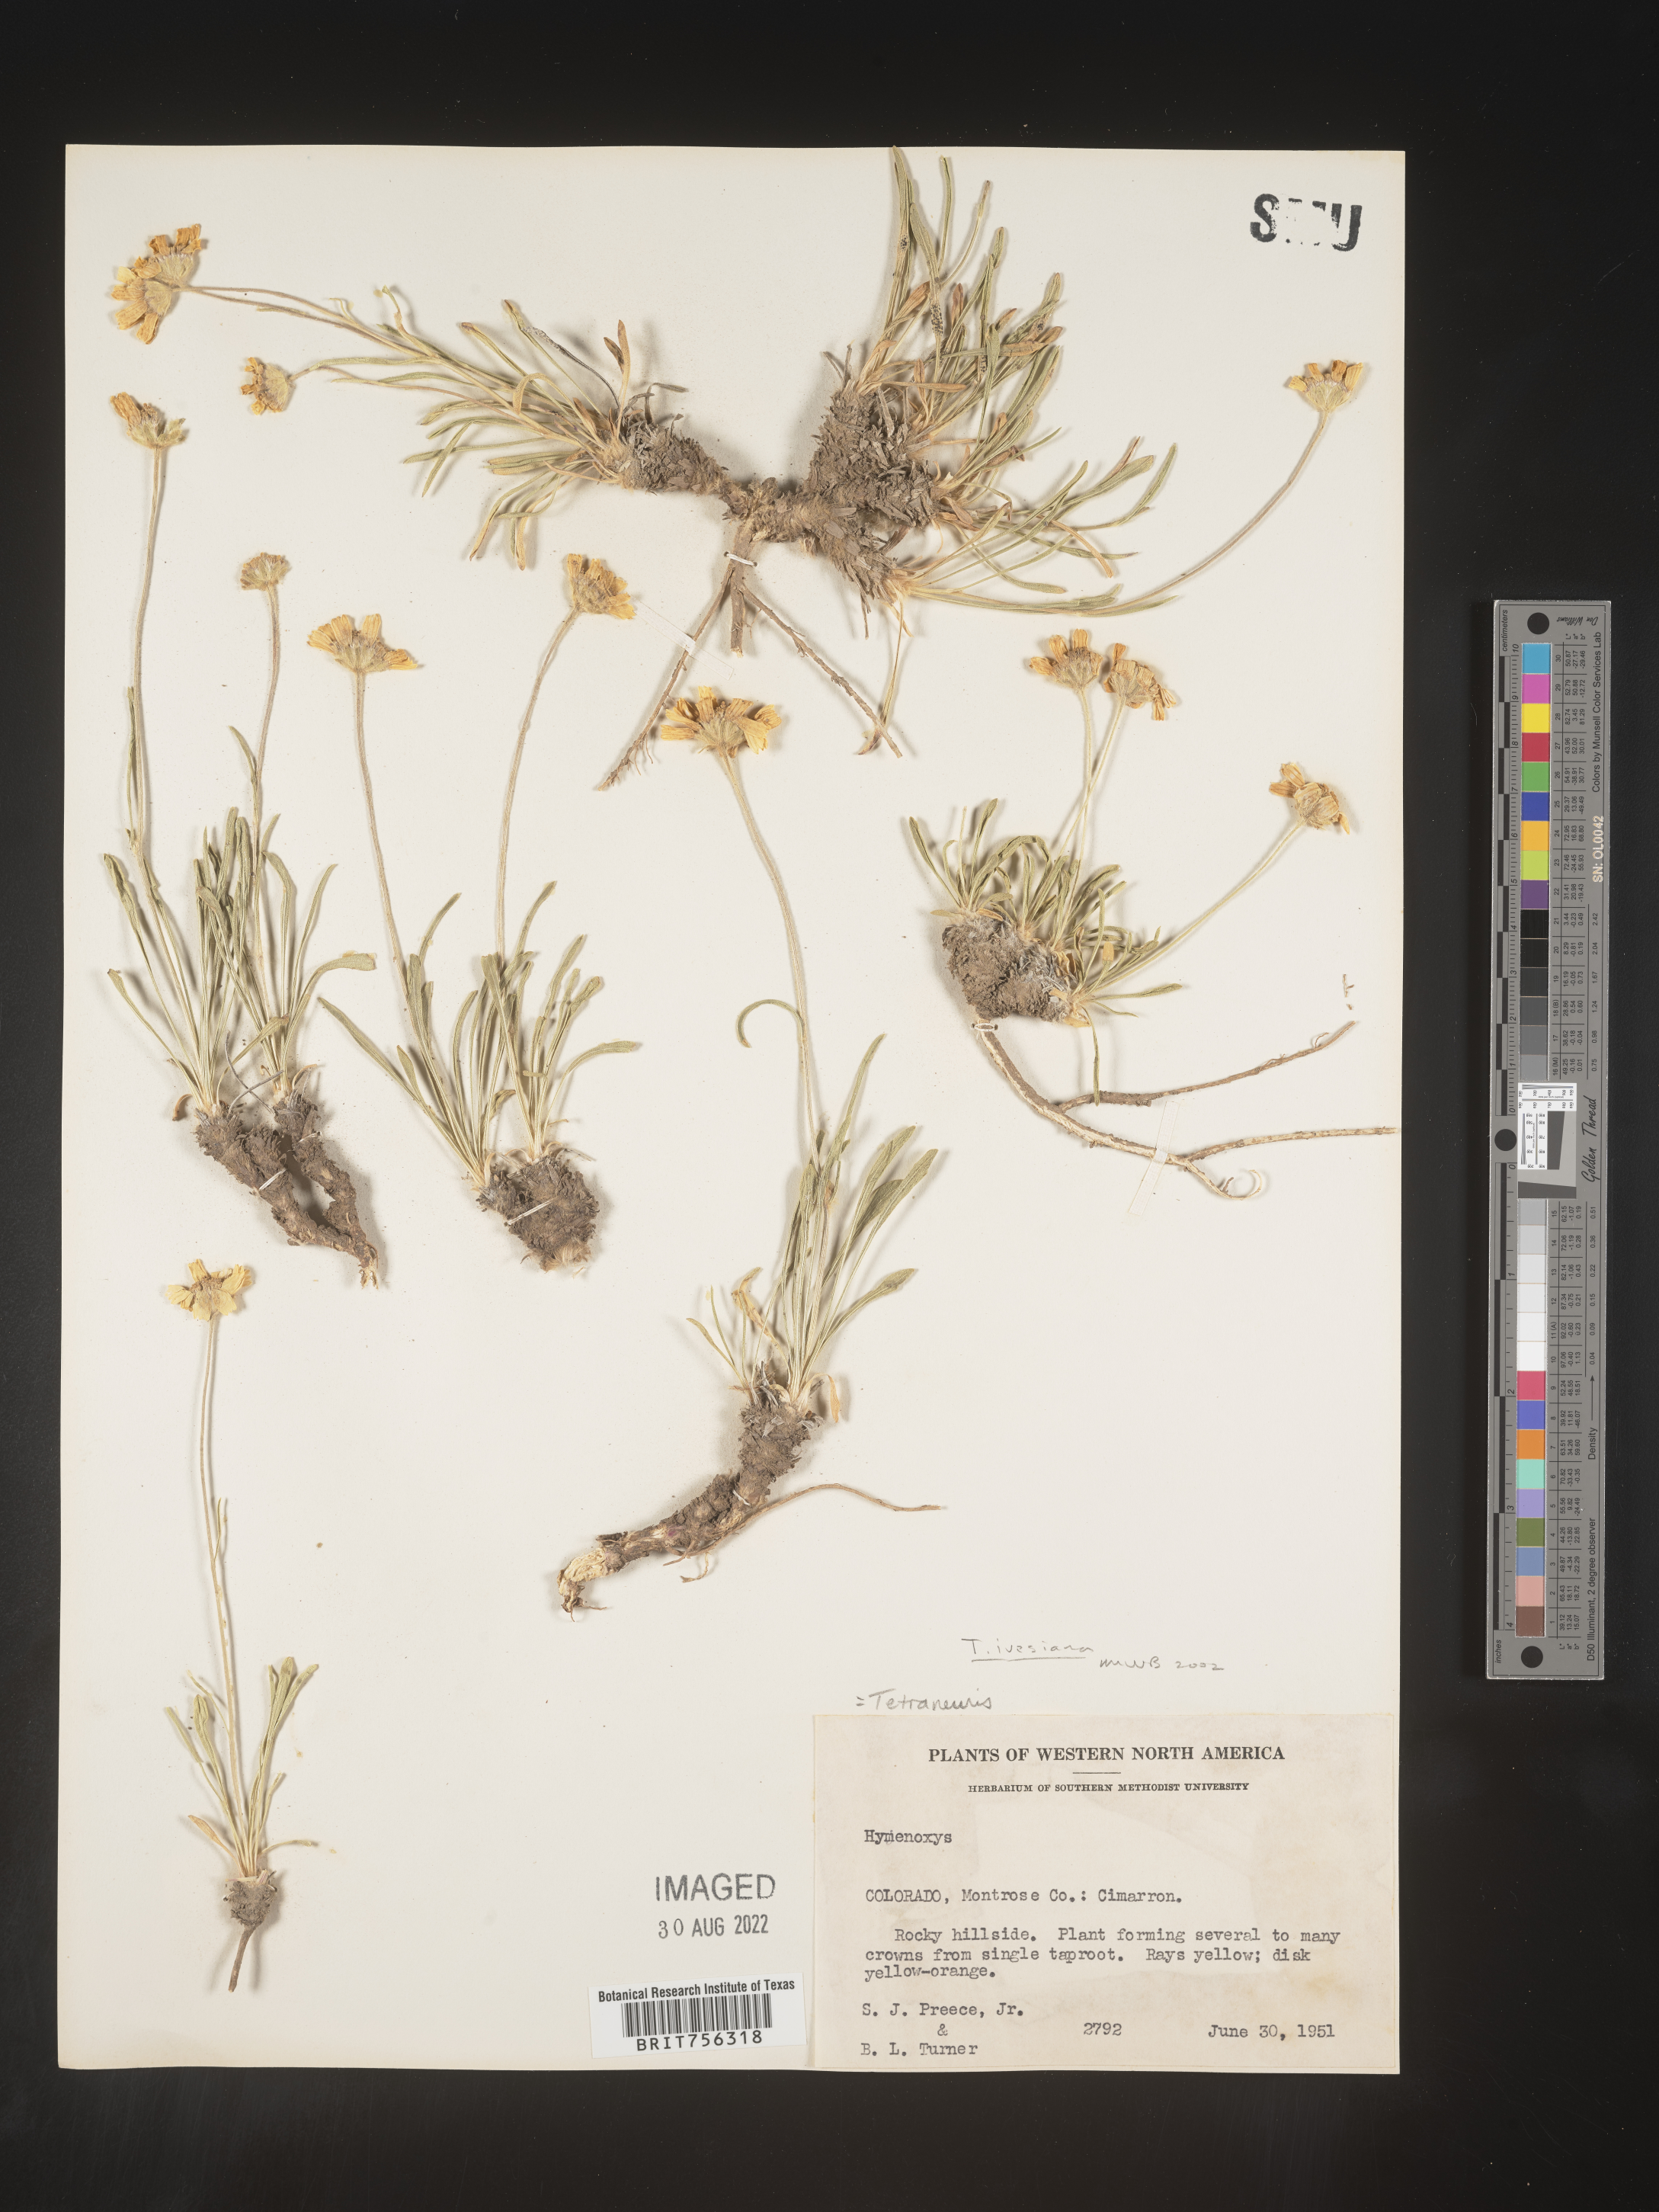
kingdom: Plantae
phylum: Tracheophyta
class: Magnoliopsida
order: Asterales
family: Asteraceae
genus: Tetraneuris
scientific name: Tetraneuris ivesiana
